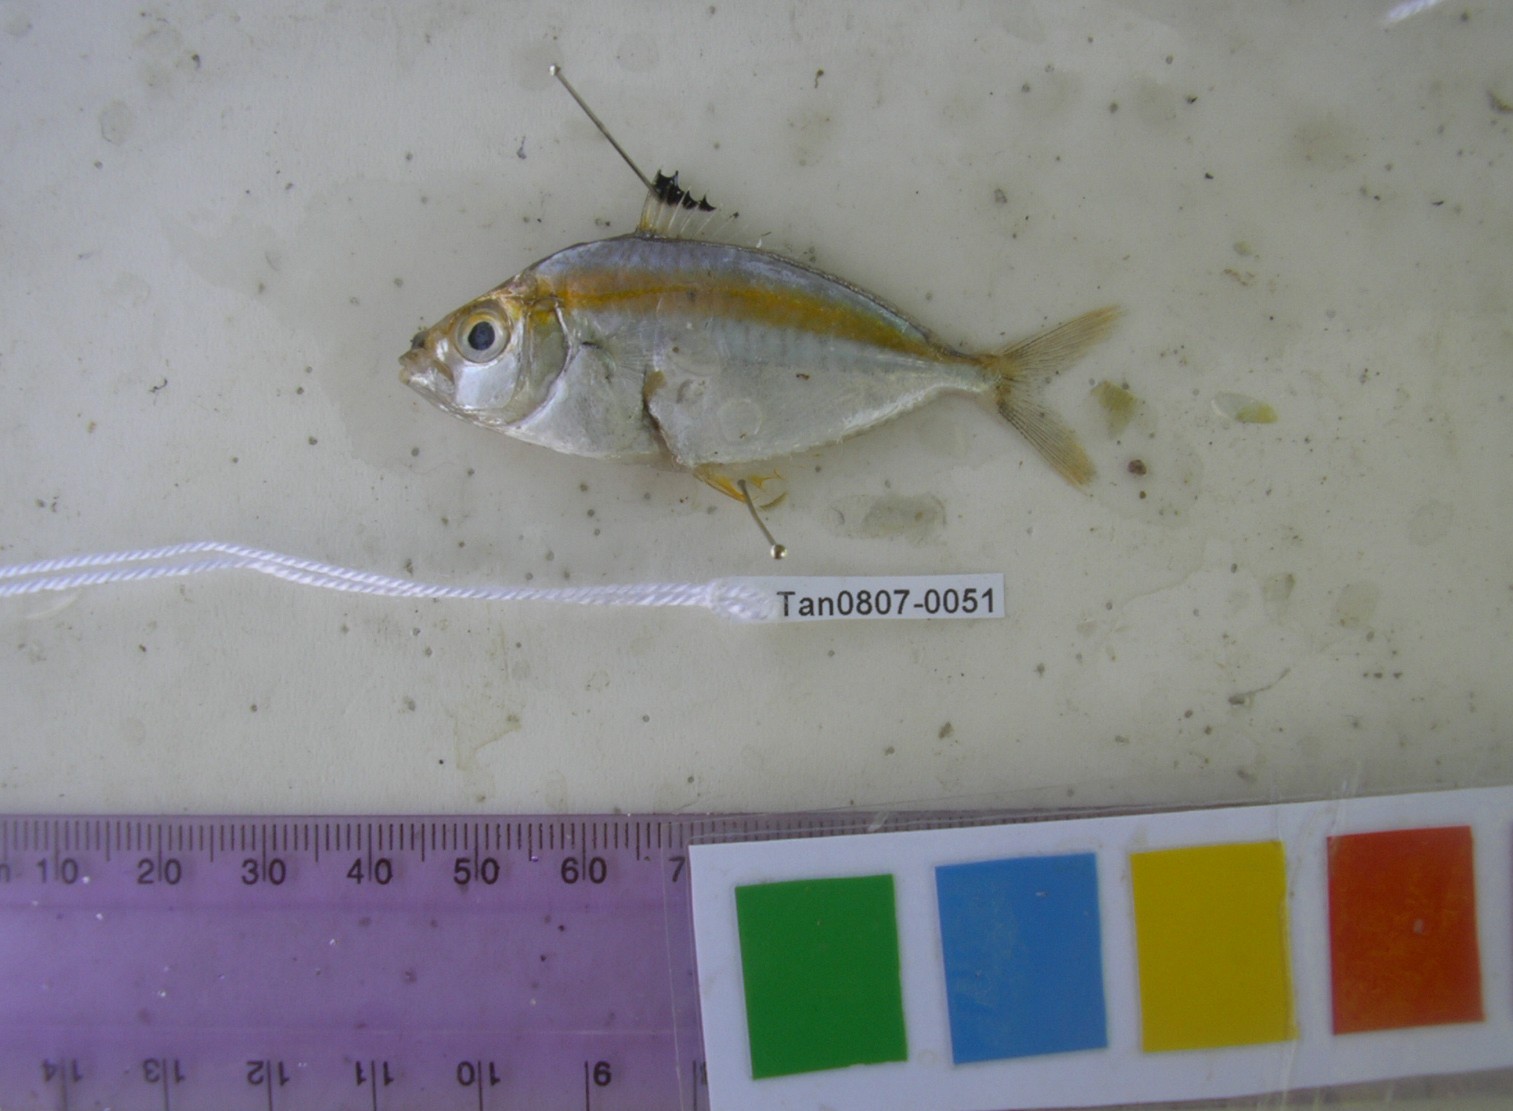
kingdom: Animalia
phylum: Chordata
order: Perciformes
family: Leiognathidae
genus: Karalla
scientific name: Karalla daura
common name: Goldstripe ponyfish
